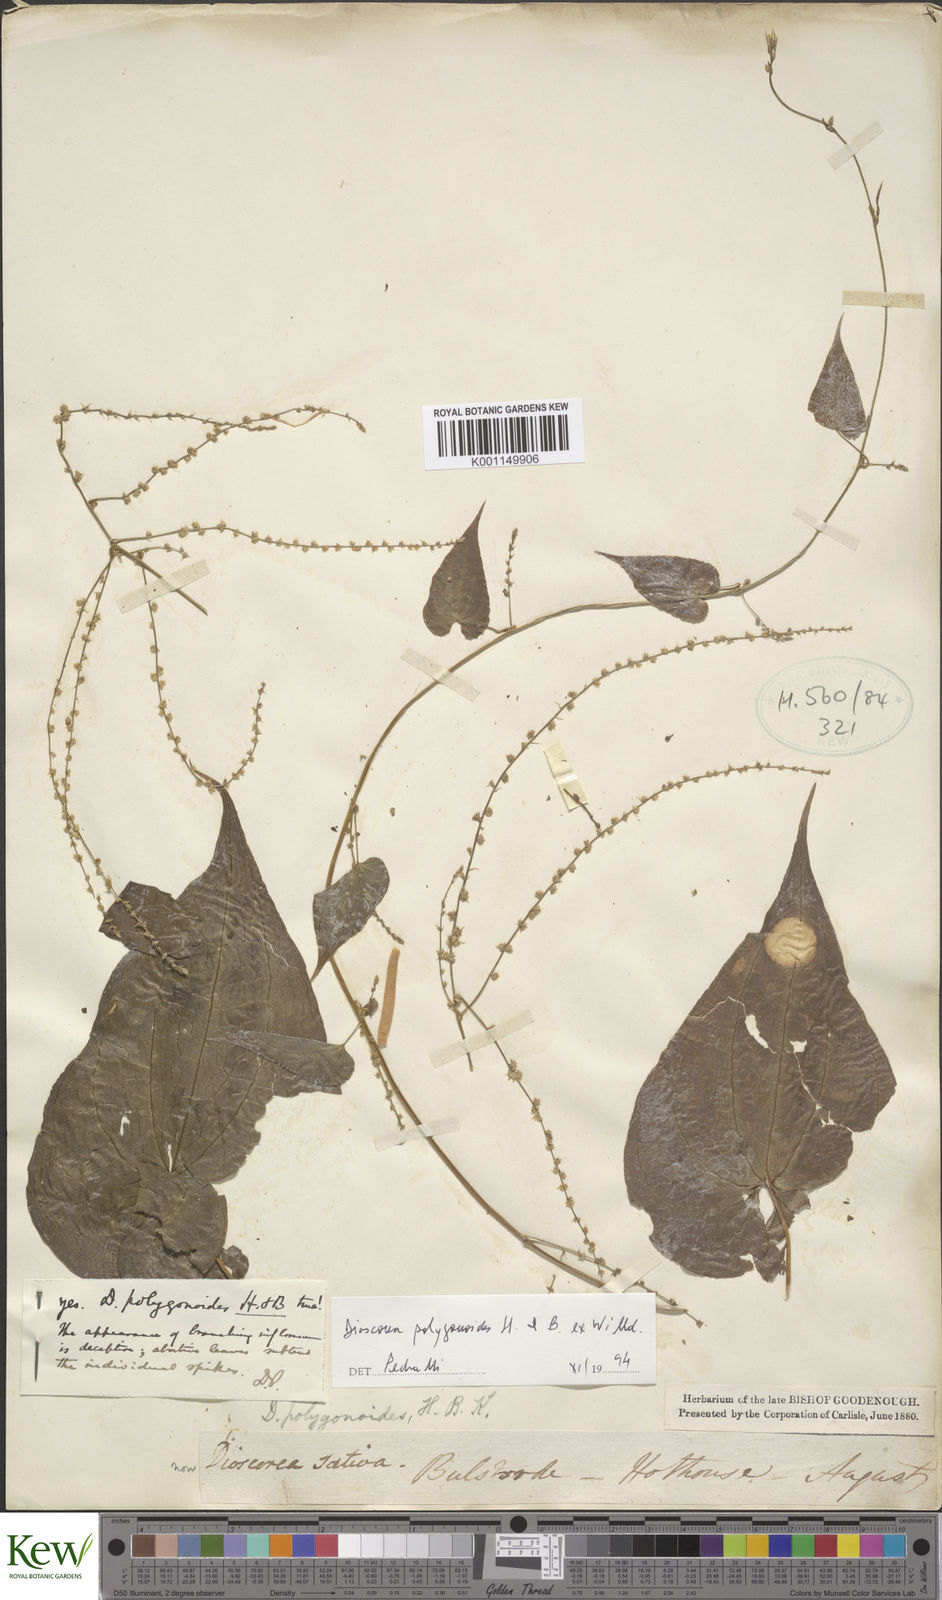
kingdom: Plantae
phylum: Tracheophyta
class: Liliopsida
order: Dioscoreales
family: Dioscoreaceae
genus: Dioscorea
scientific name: Dioscorea polygonoides
